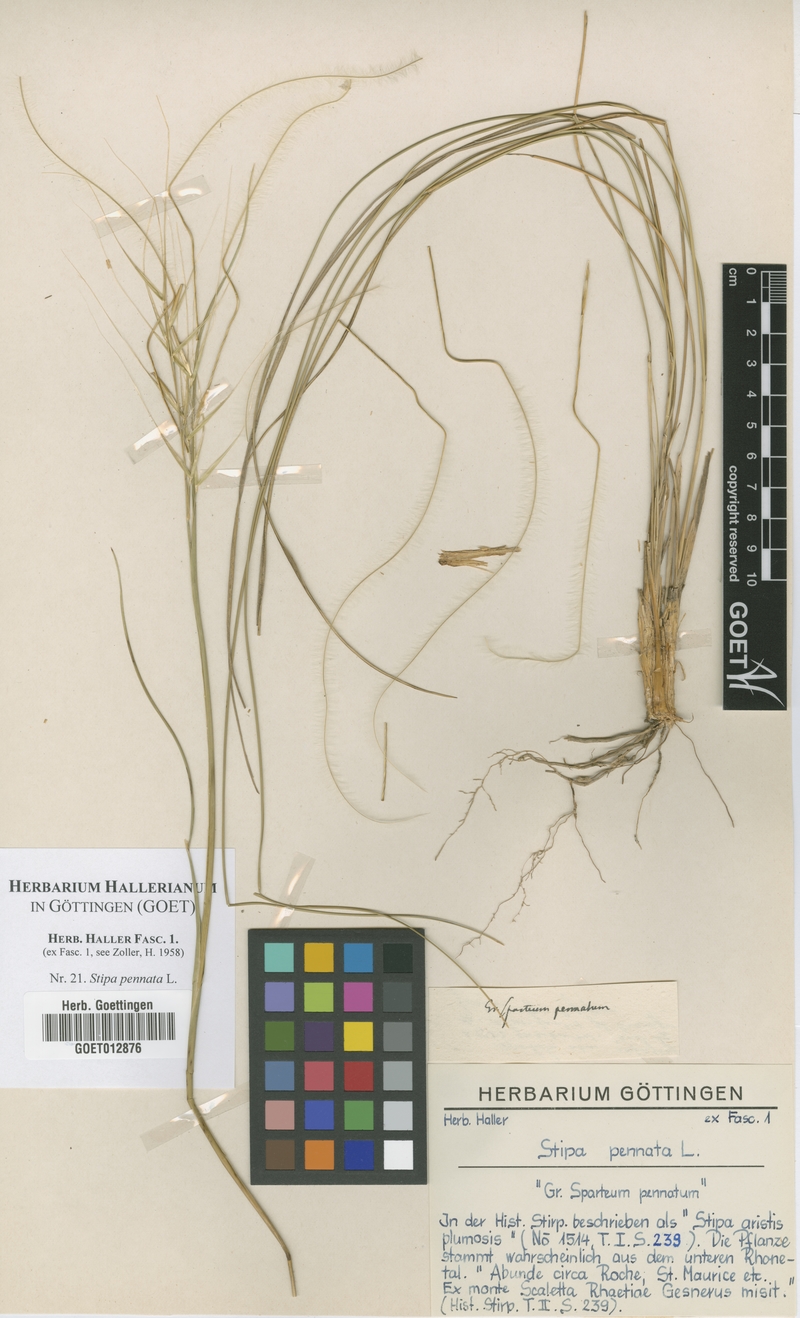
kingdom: Plantae
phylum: Tracheophyta
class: Liliopsida
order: Poales
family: Poaceae
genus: Stipa
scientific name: Stipa pennata
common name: European feather grass
